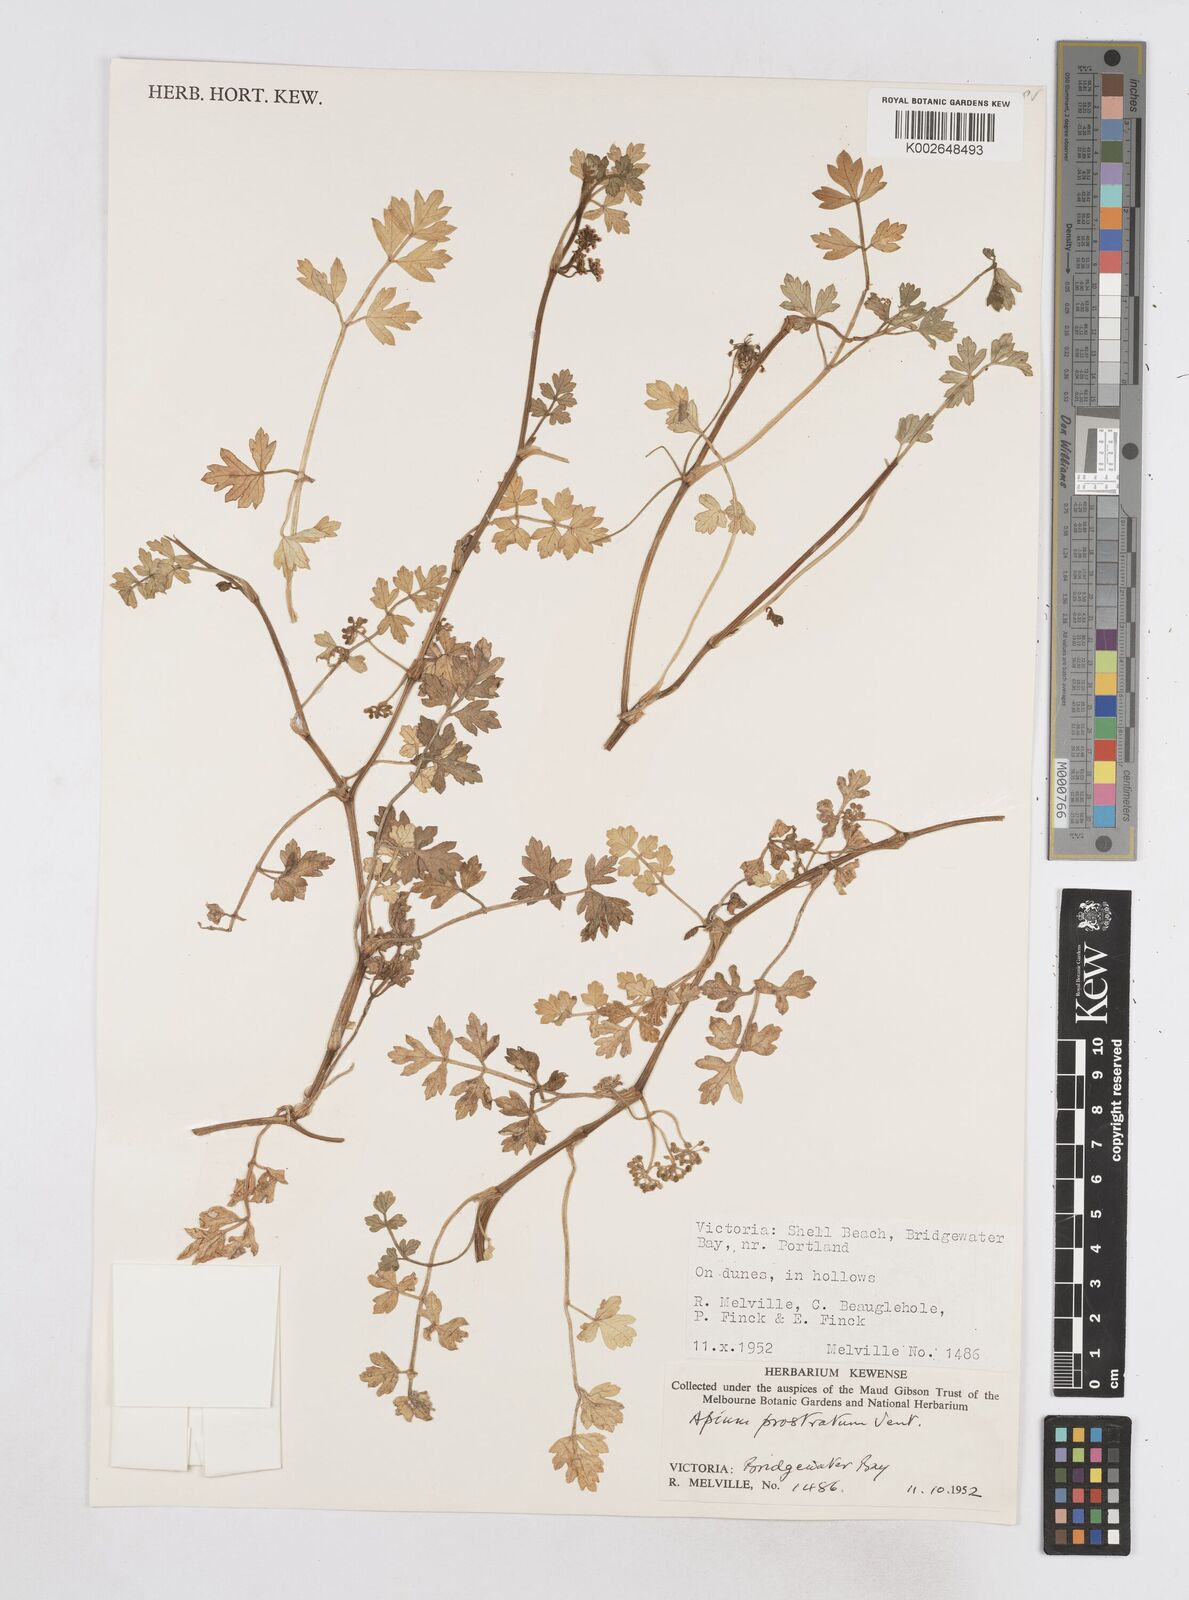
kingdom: Plantae
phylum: Tracheophyta
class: Magnoliopsida
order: Apiales
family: Apiaceae
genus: Apium
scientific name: Apium prostratum
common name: Prostrate marshwort
